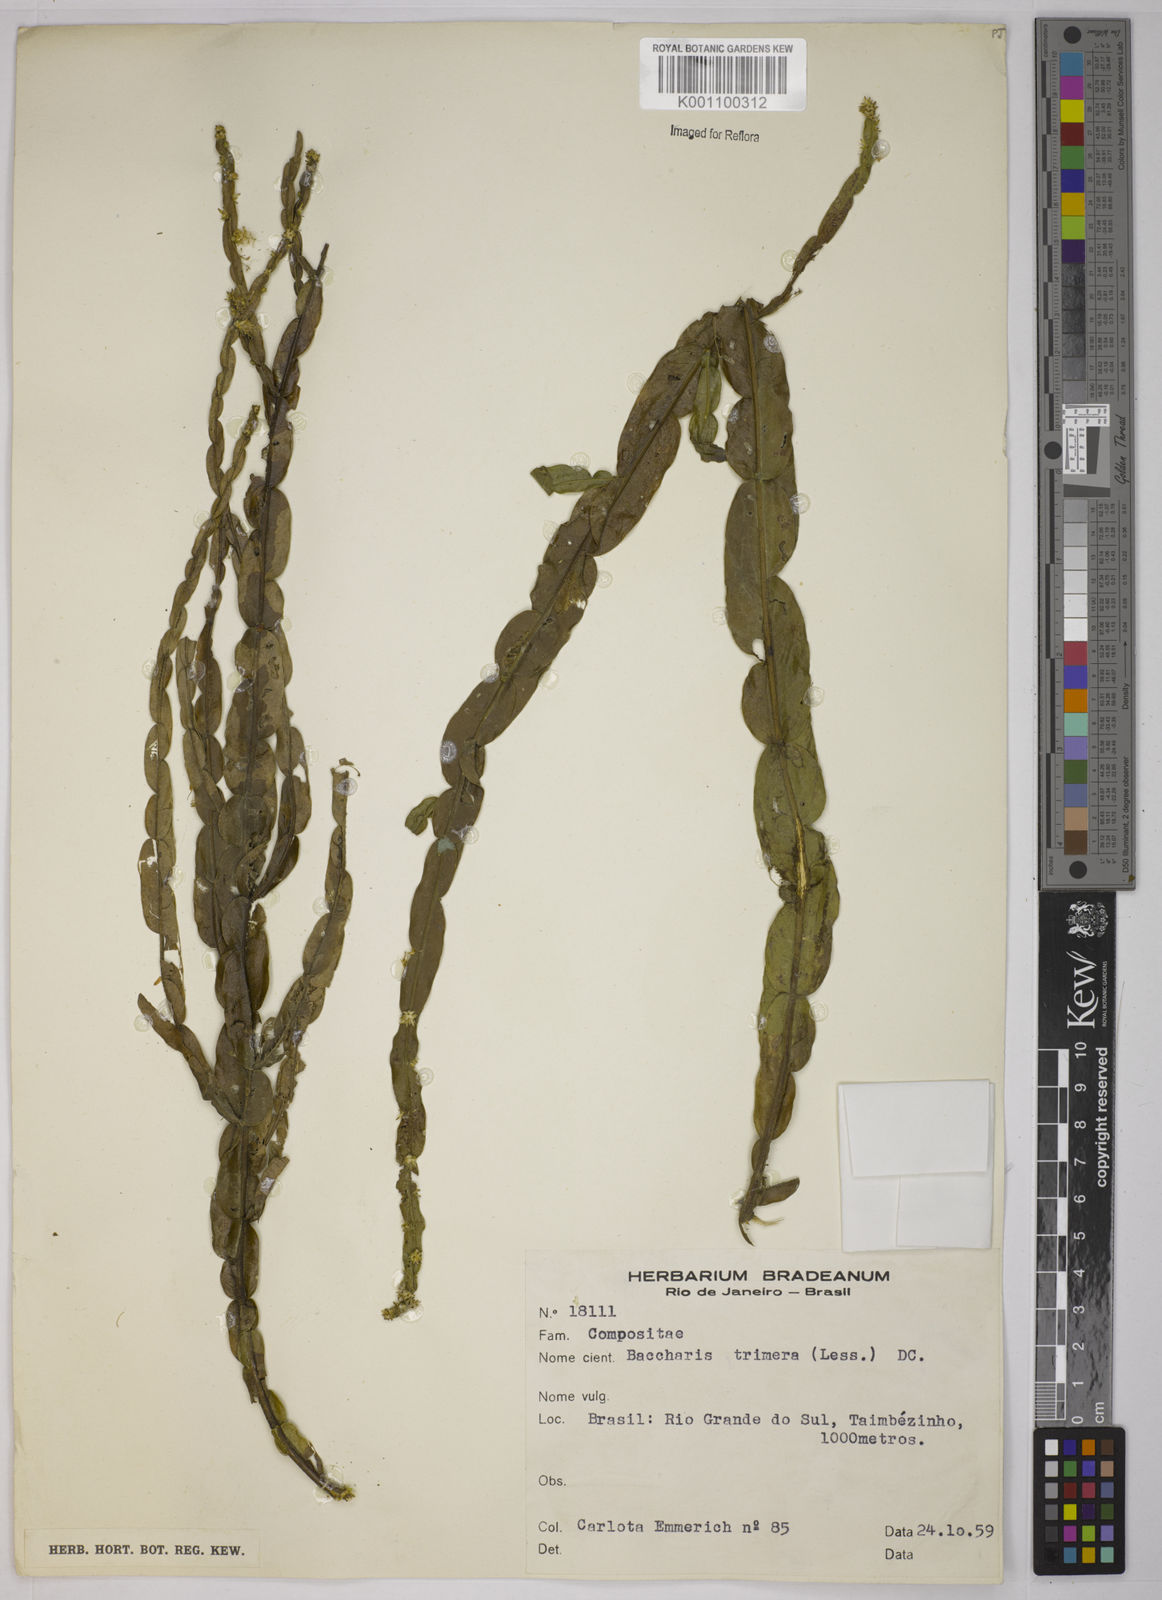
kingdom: Plantae
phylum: Tracheophyta
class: Magnoliopsida
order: Asterales
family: Asteraceae
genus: Baccharis
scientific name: Baccharis trimera
